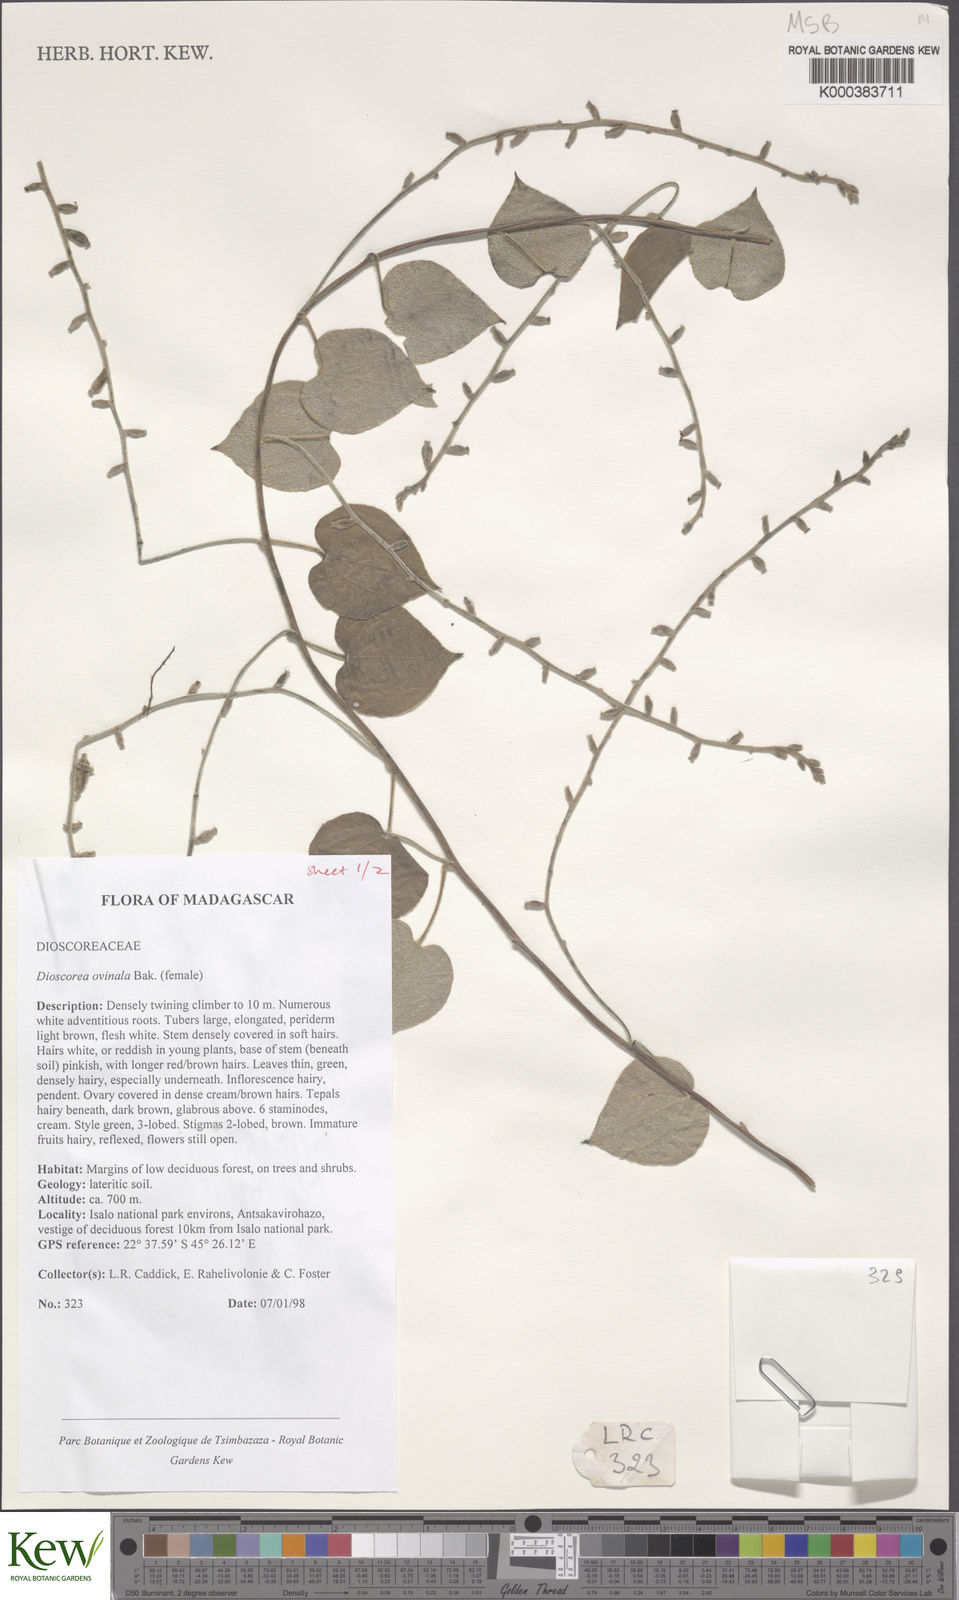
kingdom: Plantae
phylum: Tracheophyta
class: Liliopsida
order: Dioscoreales
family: Dioscoreaceae
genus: Dioscorea
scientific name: Dioscorea ovinala
